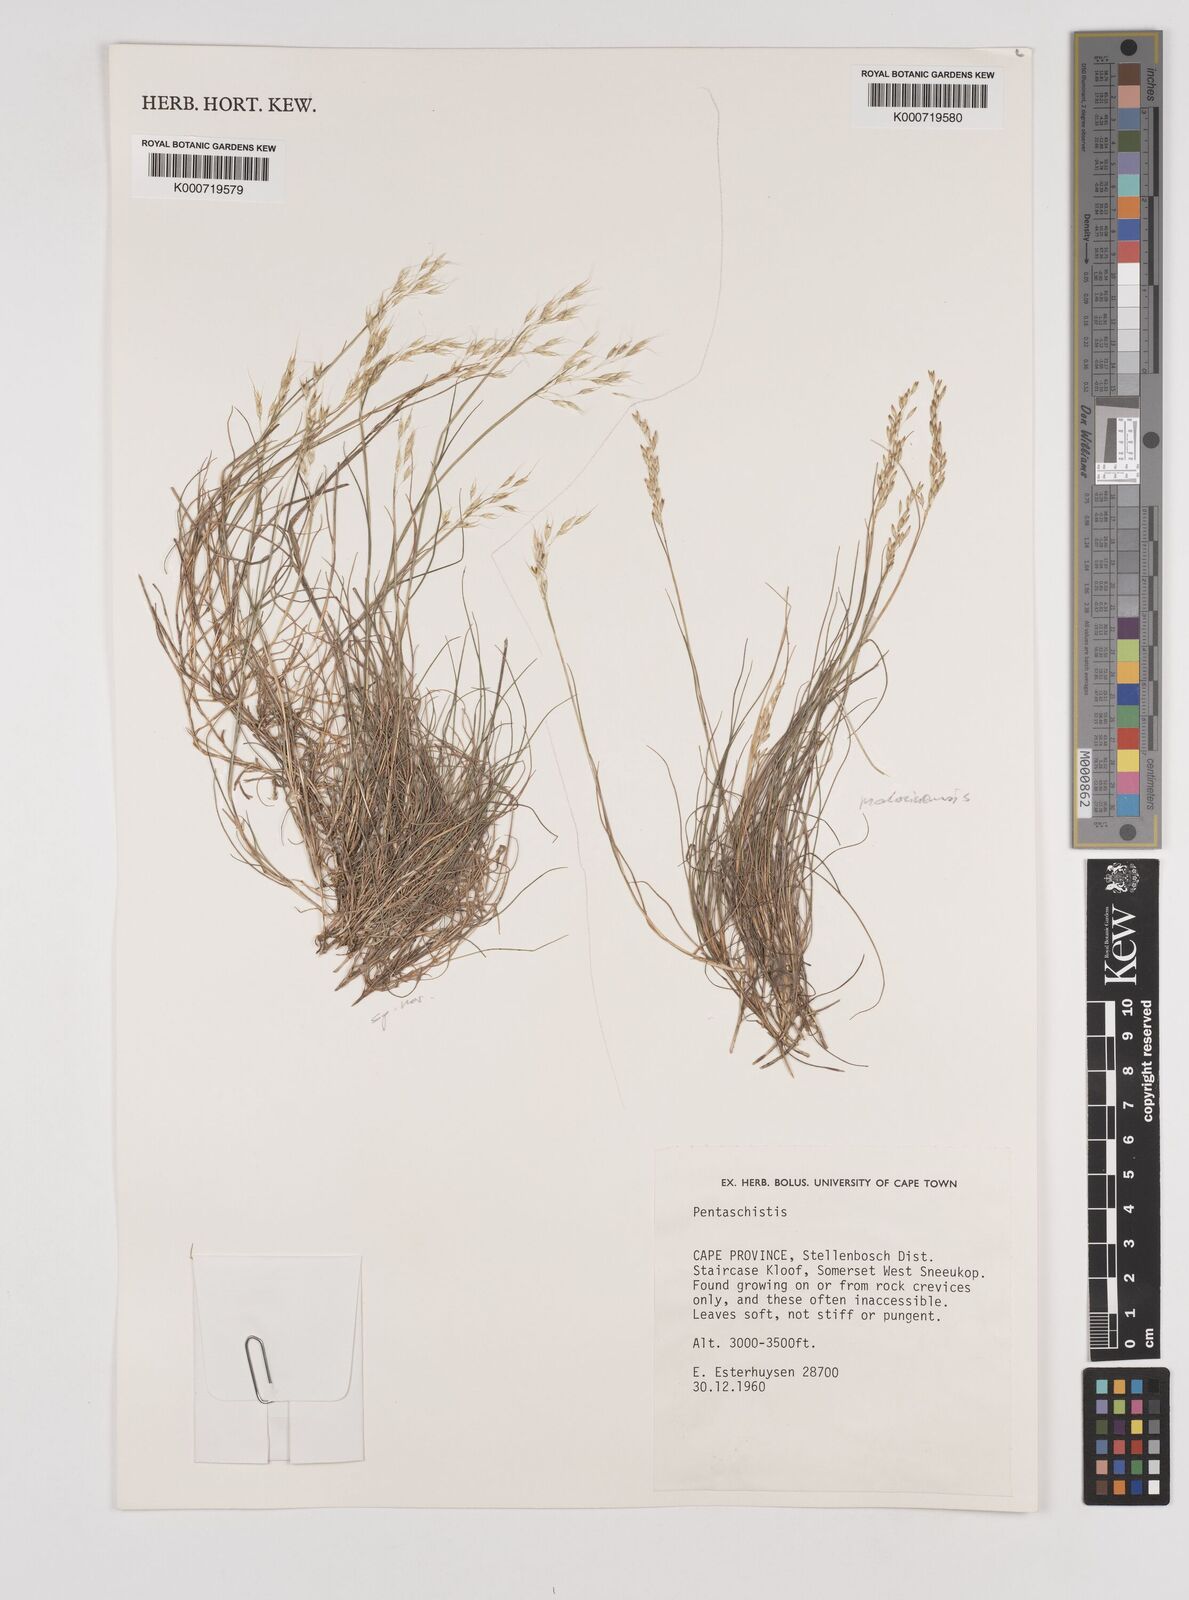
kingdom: Plantae
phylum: Tracheophyta
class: Liliopsida
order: Poales
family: Poaceae
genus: Pentameris
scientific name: Pentameris rigidissima
